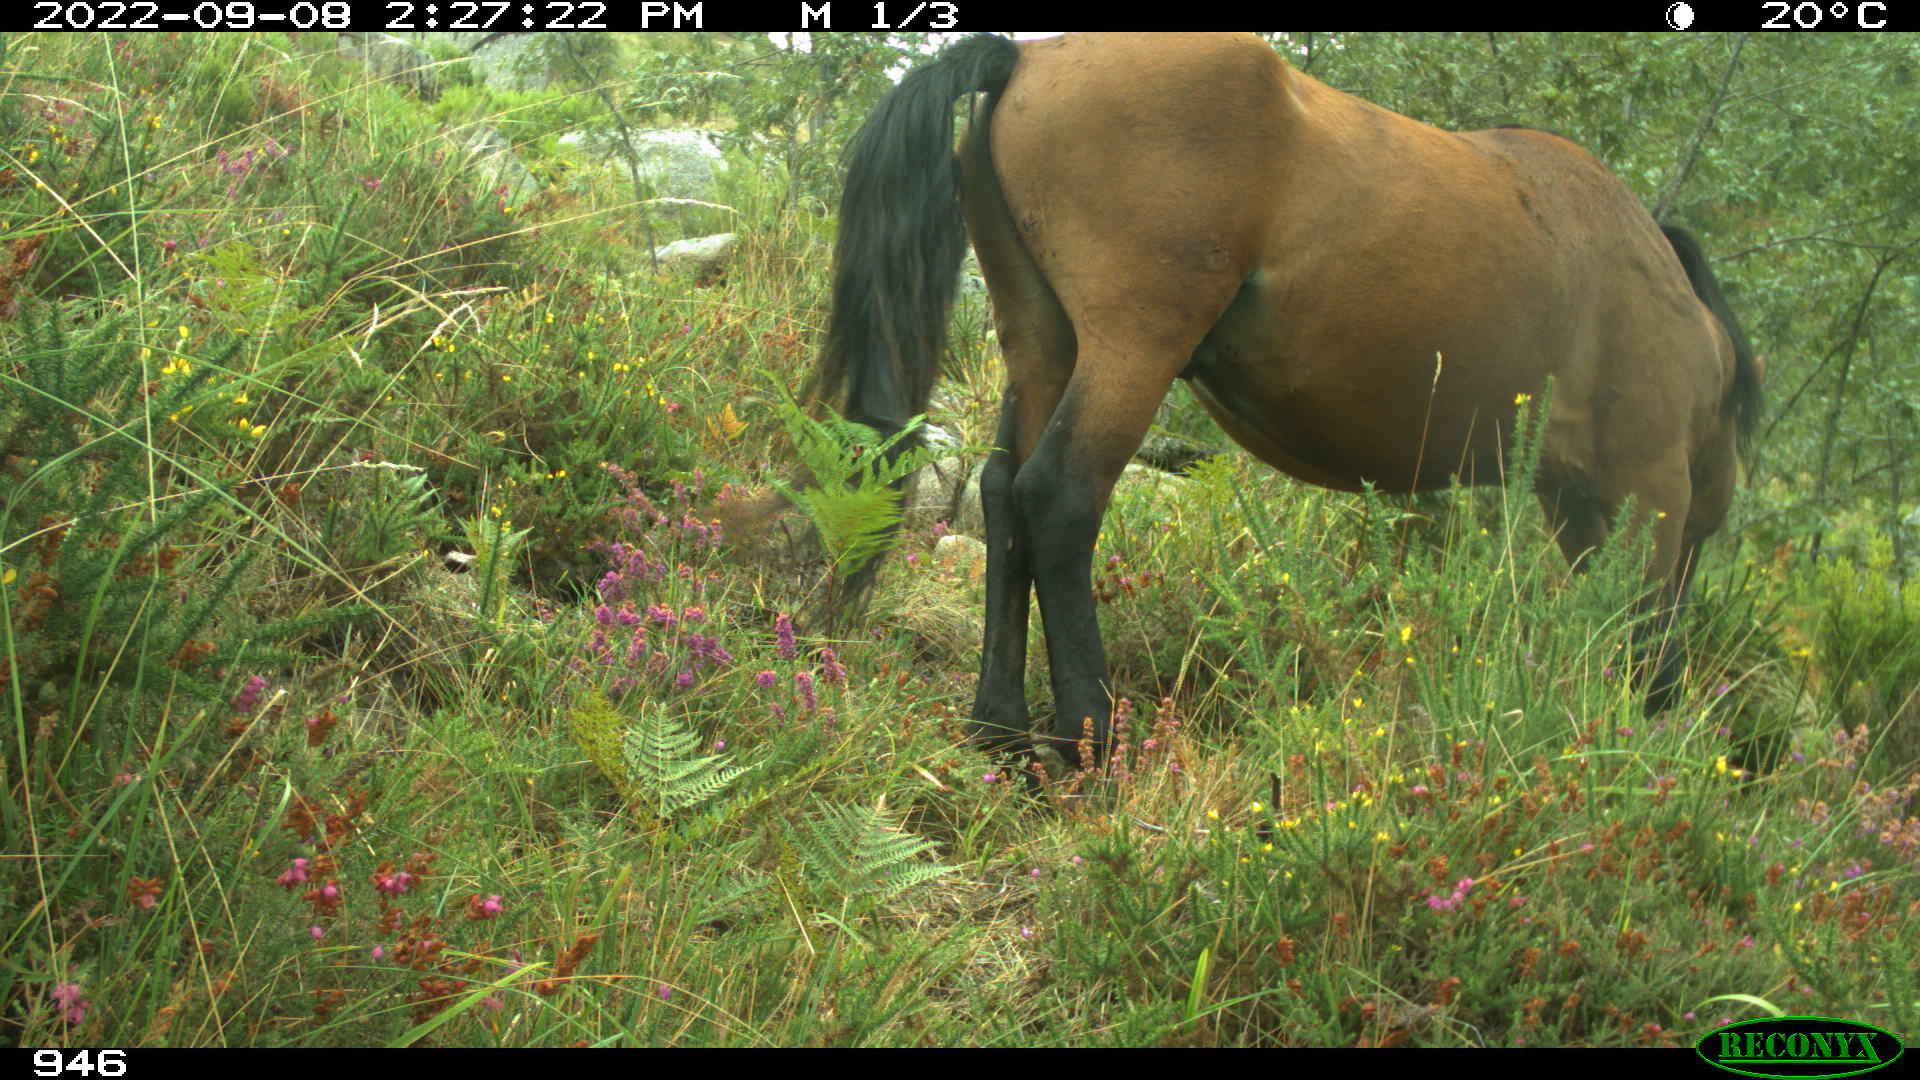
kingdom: Animalia
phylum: Chordata
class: Mammalia
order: Perissodactyla
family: Equidae
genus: Equus
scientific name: Equus caballus
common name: Horse
